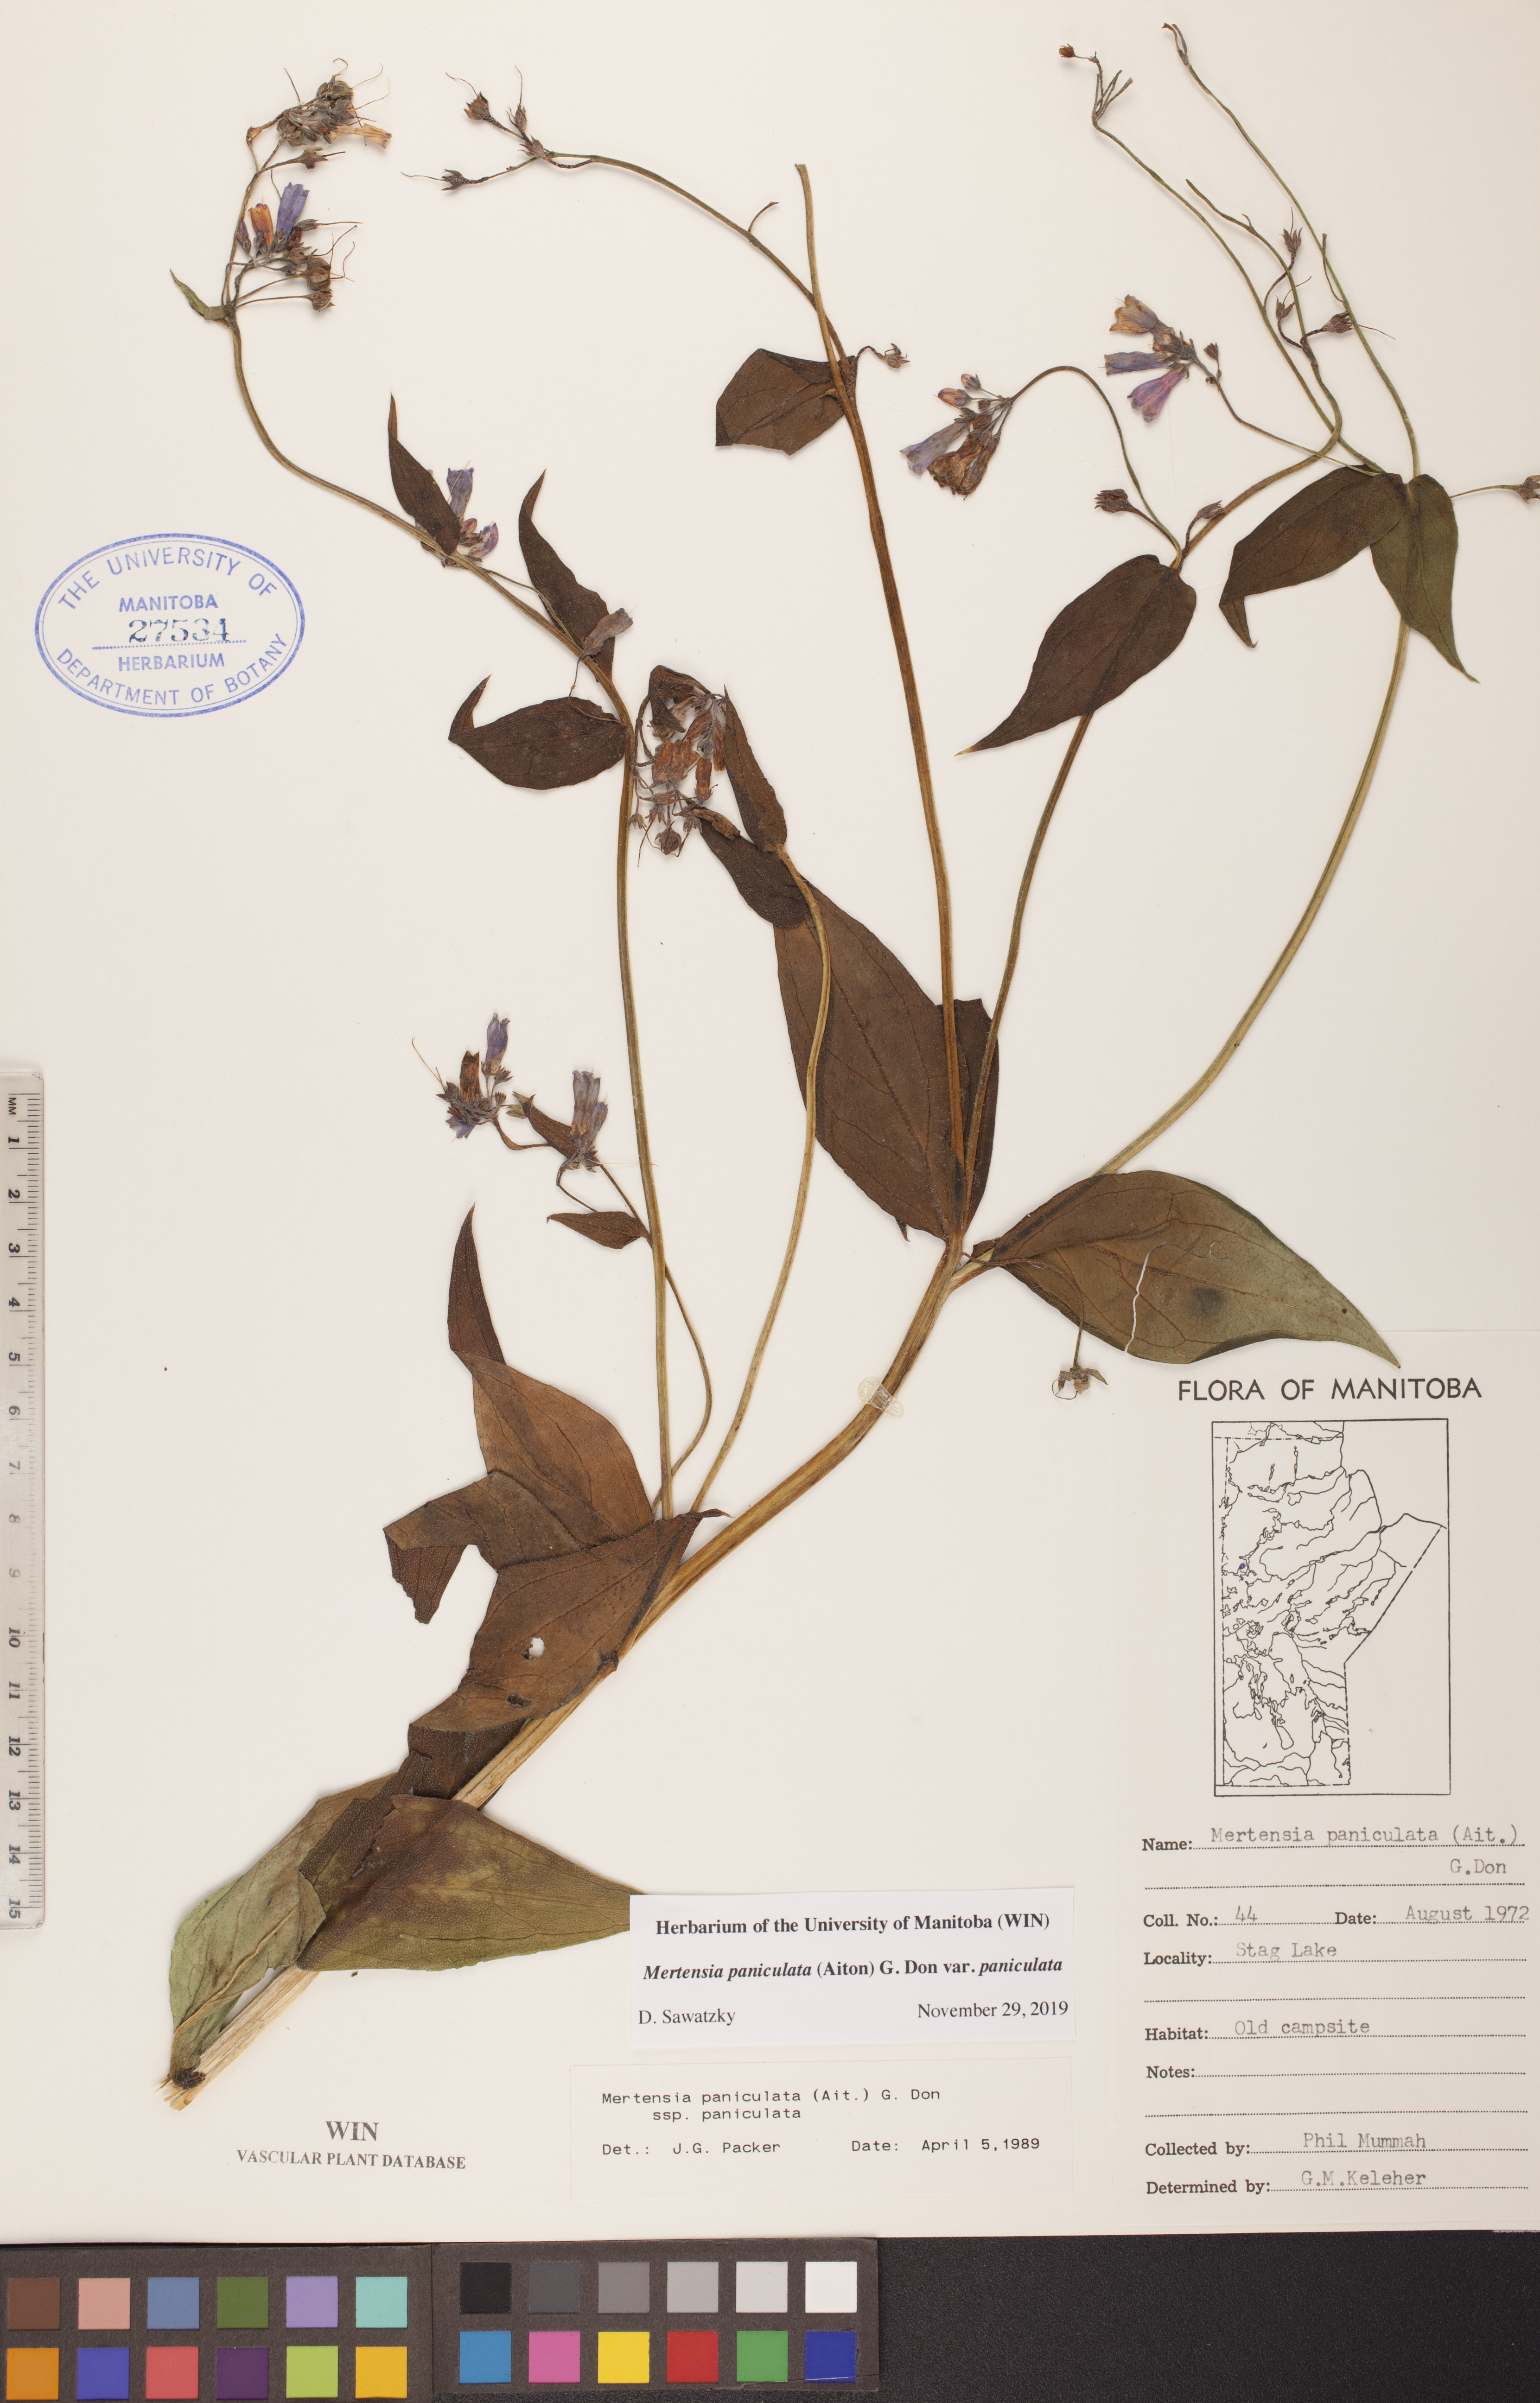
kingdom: Plantae
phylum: Tracheophyta
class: Magnoliopsida
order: Boraginales
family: Boraginaceae
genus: Mertensia
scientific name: Mertensia paniculata
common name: Panicled bluebells
